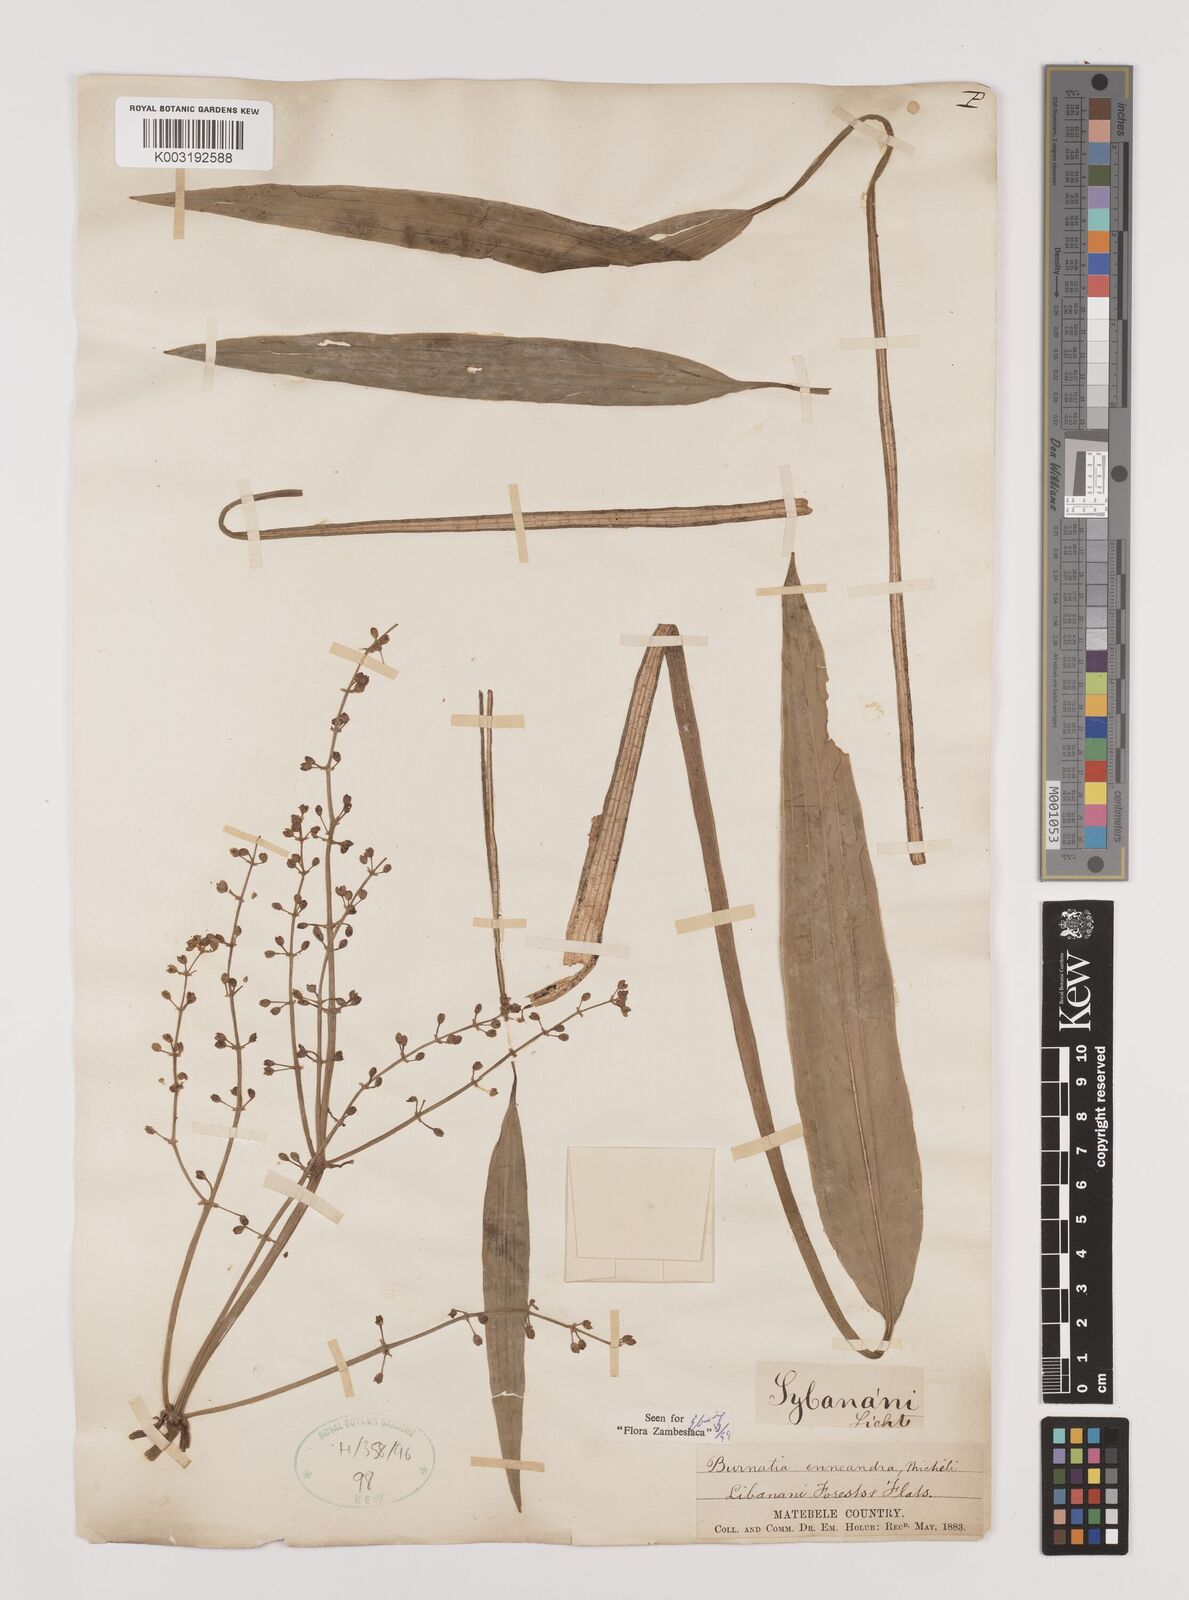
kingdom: Plantae
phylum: Tracheophyta
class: Liliopsida
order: Alismatales
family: Alismataceae
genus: Burnatia
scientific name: Burnatia enneandra
